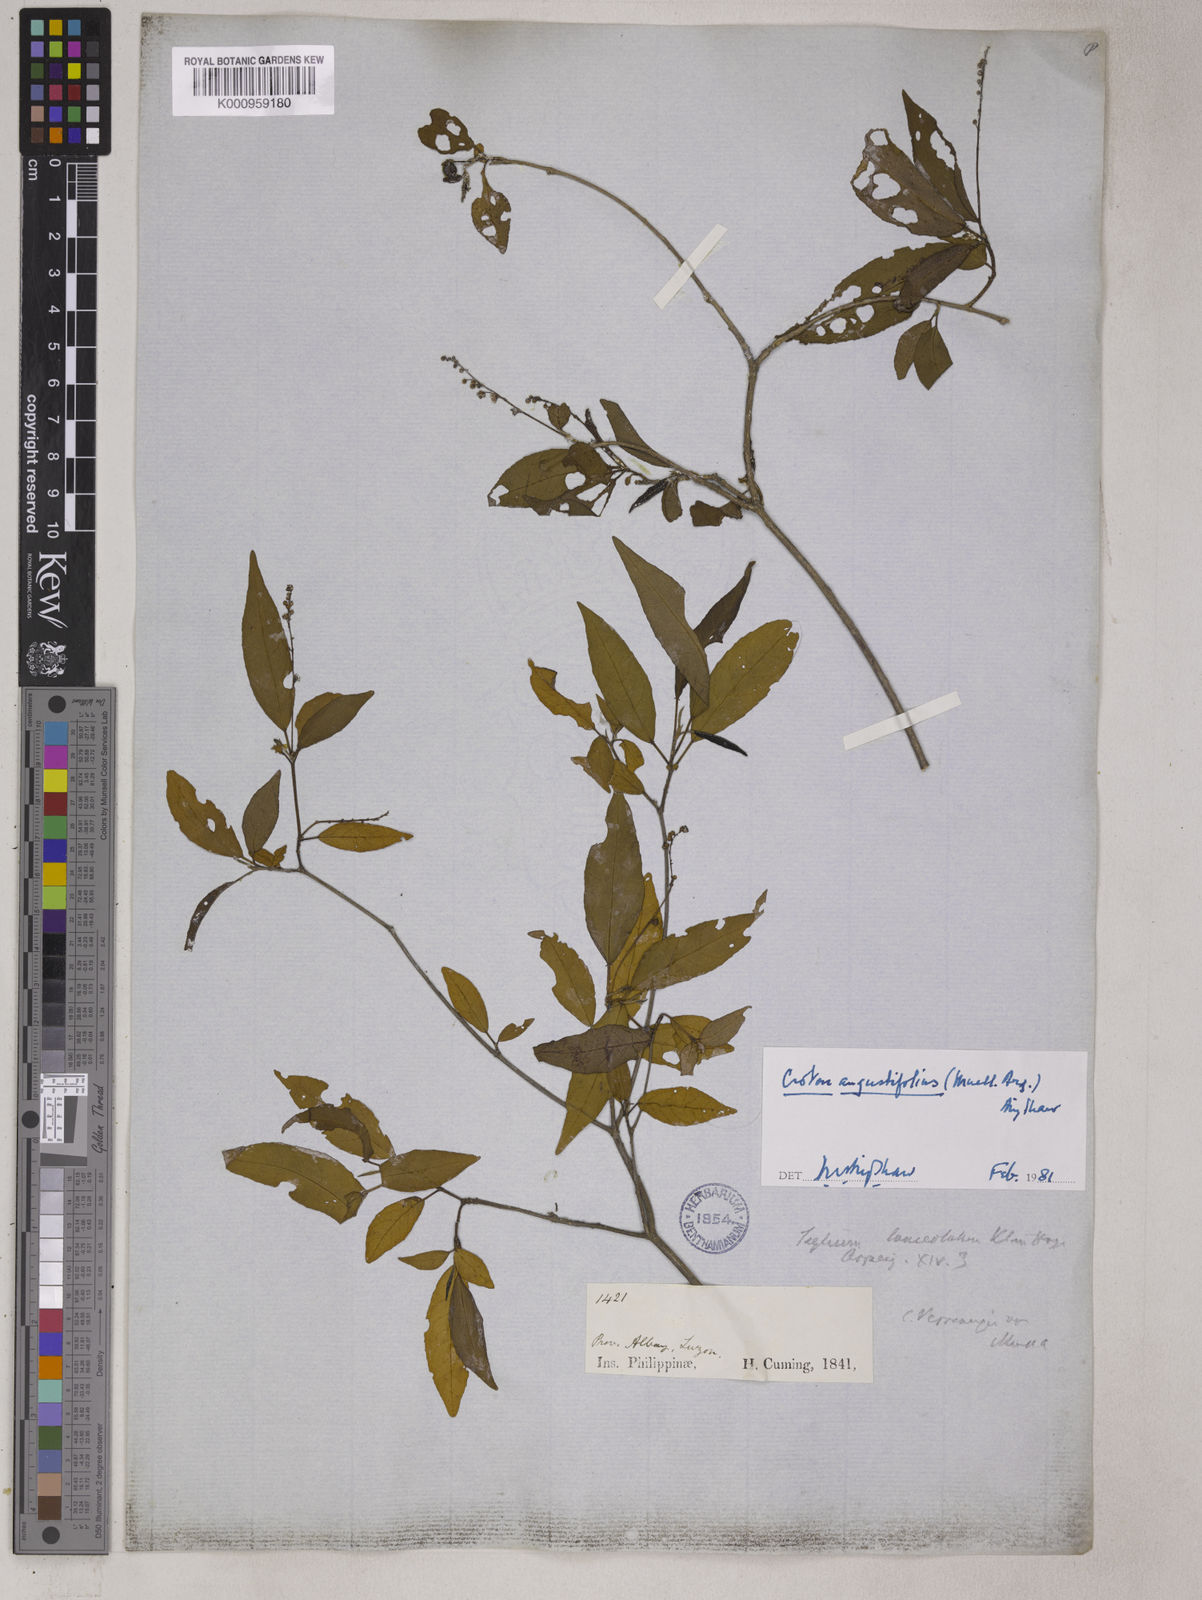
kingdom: Plantae
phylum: Tracheophyta
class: Magnoliopsida
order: Malpighiales
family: Euphorbiaceae
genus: Croton
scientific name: Croton
